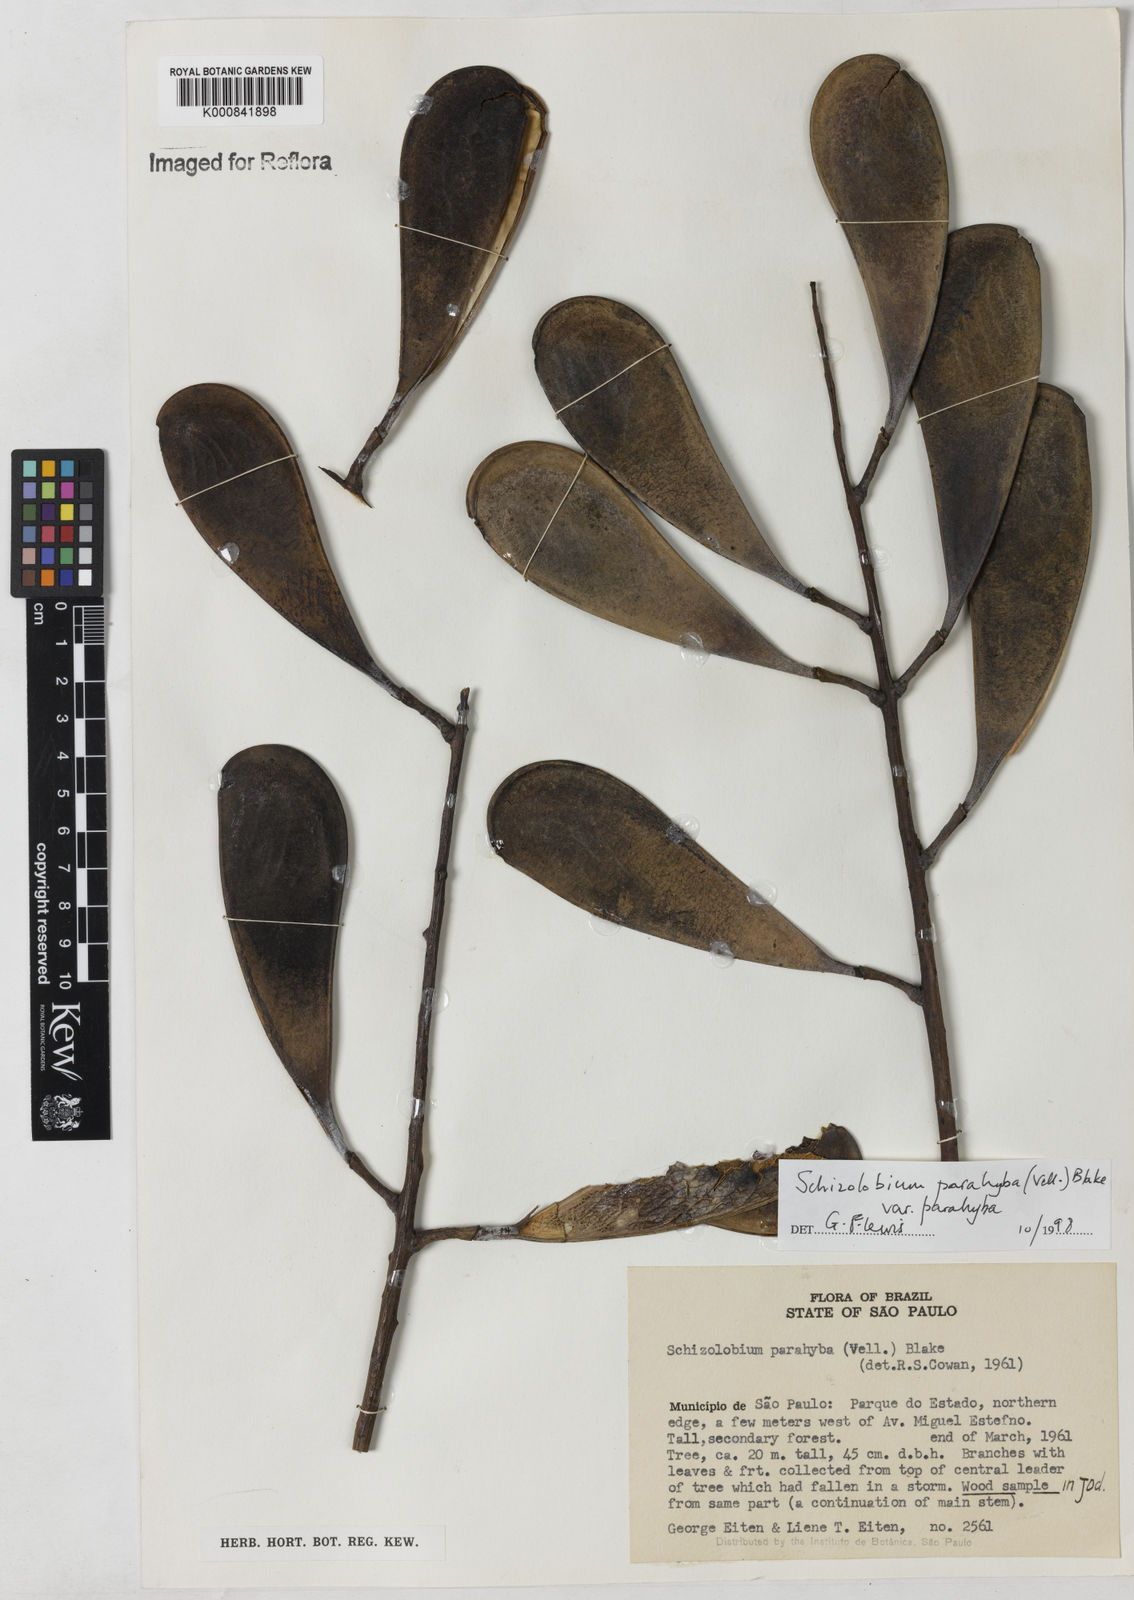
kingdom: Plantae
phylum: Tracheophyta
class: Magnoliopsida
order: Fabales
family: Fabaceae
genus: Schizolobium
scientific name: Schizolobium parahyba
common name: Brazilian firetree
